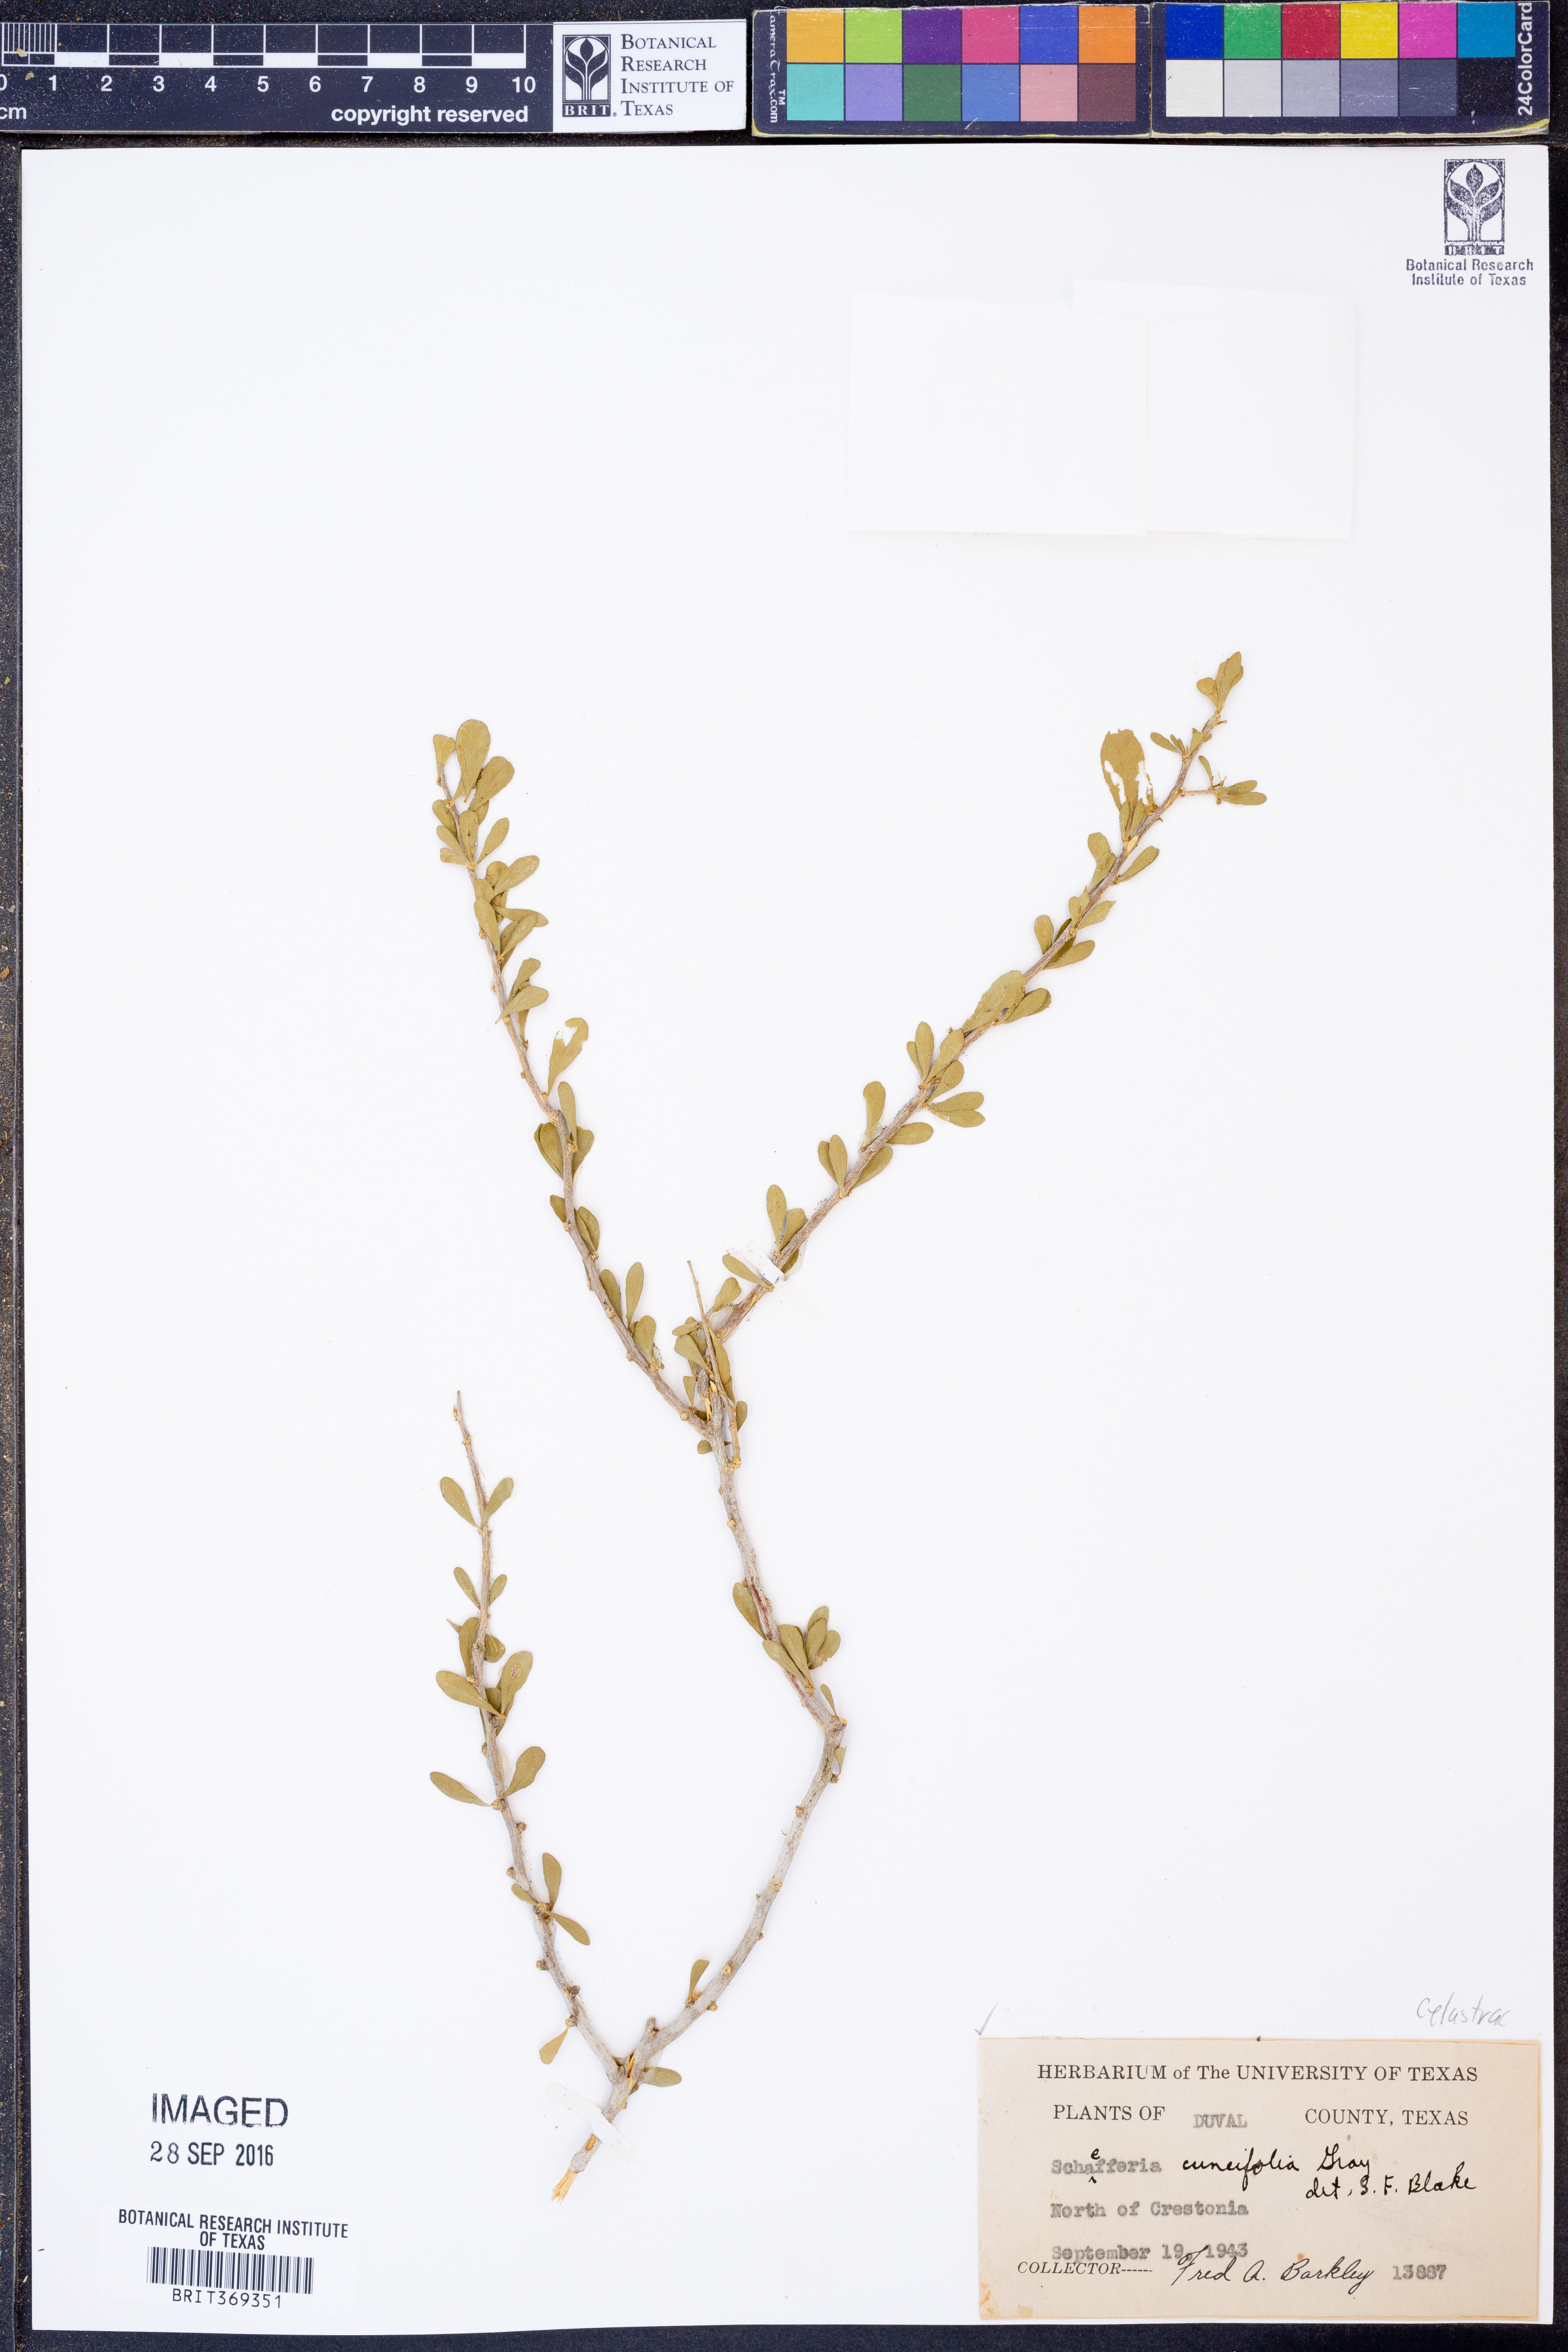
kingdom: Plantae
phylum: Tracheophyta
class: Magnoliopsida
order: Celastrales
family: Celastraceae
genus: Schaefferia
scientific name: Schaefferia cuneifolia
